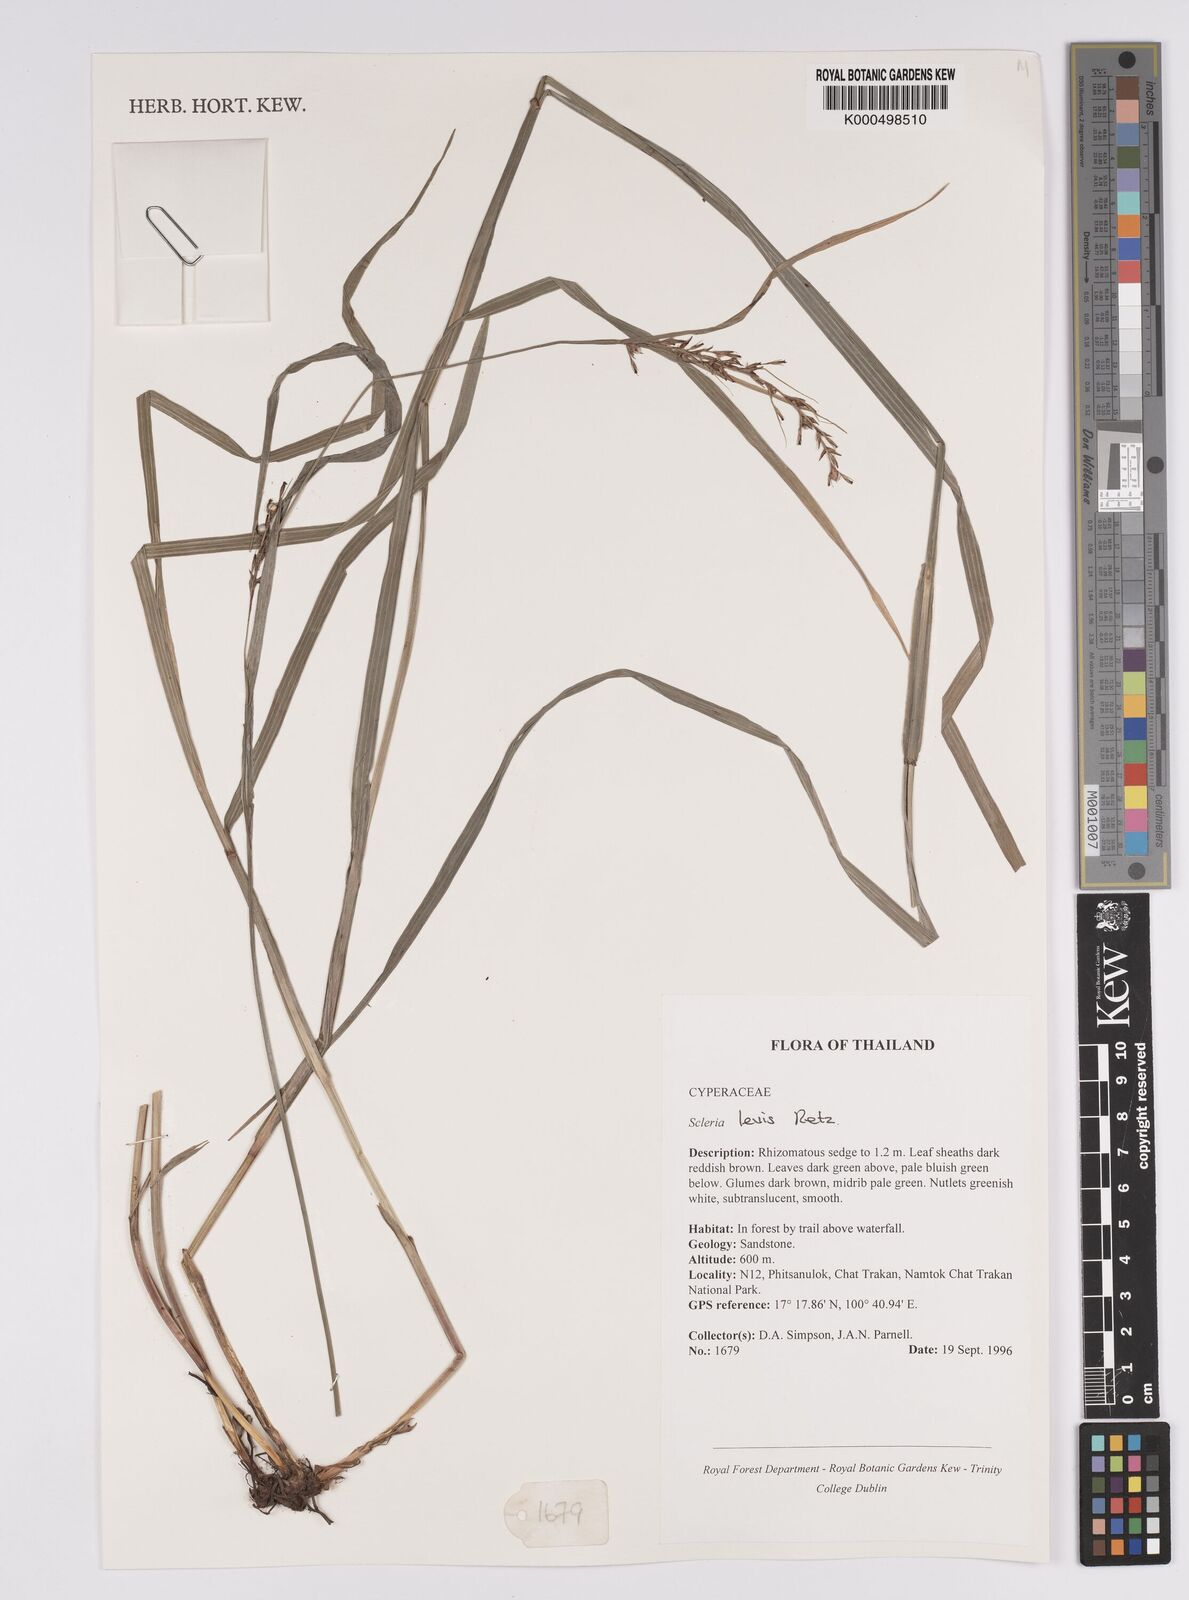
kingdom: Plantae
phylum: Tracheophyta
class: Liliopsida
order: Poales
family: Cyperaceae
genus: Scleria
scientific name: Scleria levis
